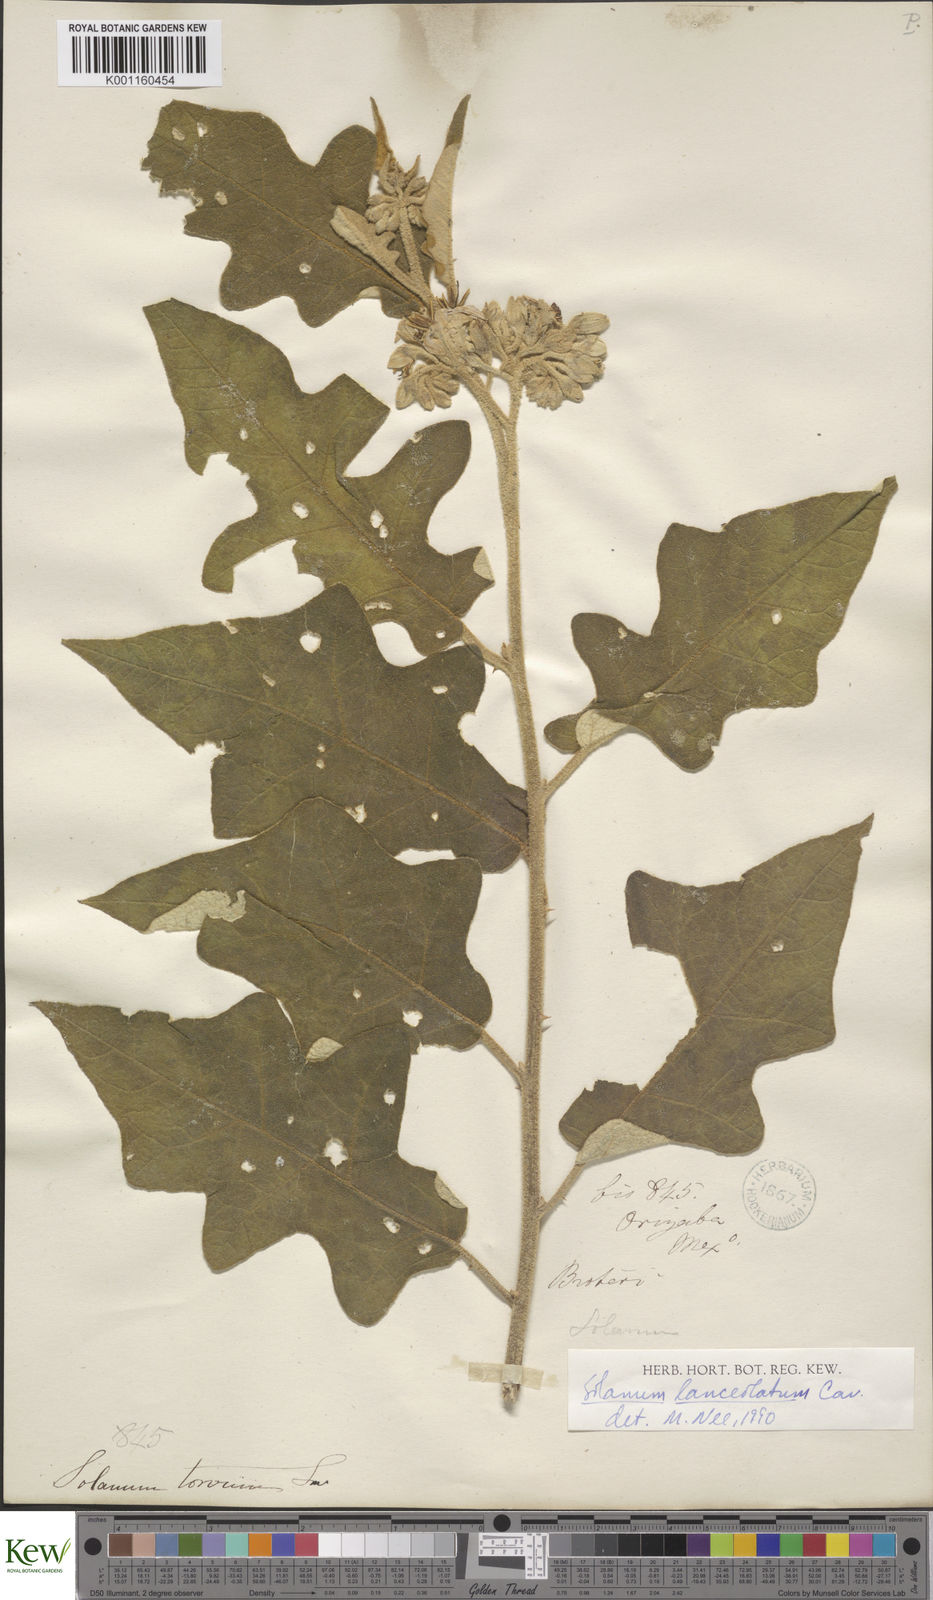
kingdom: Plantae
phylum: Tracheophyta
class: Magnoliopsida
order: Solanales
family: Solanaceae
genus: Solanum
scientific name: Solanum lanceolatum
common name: Orangeberry nightshade
